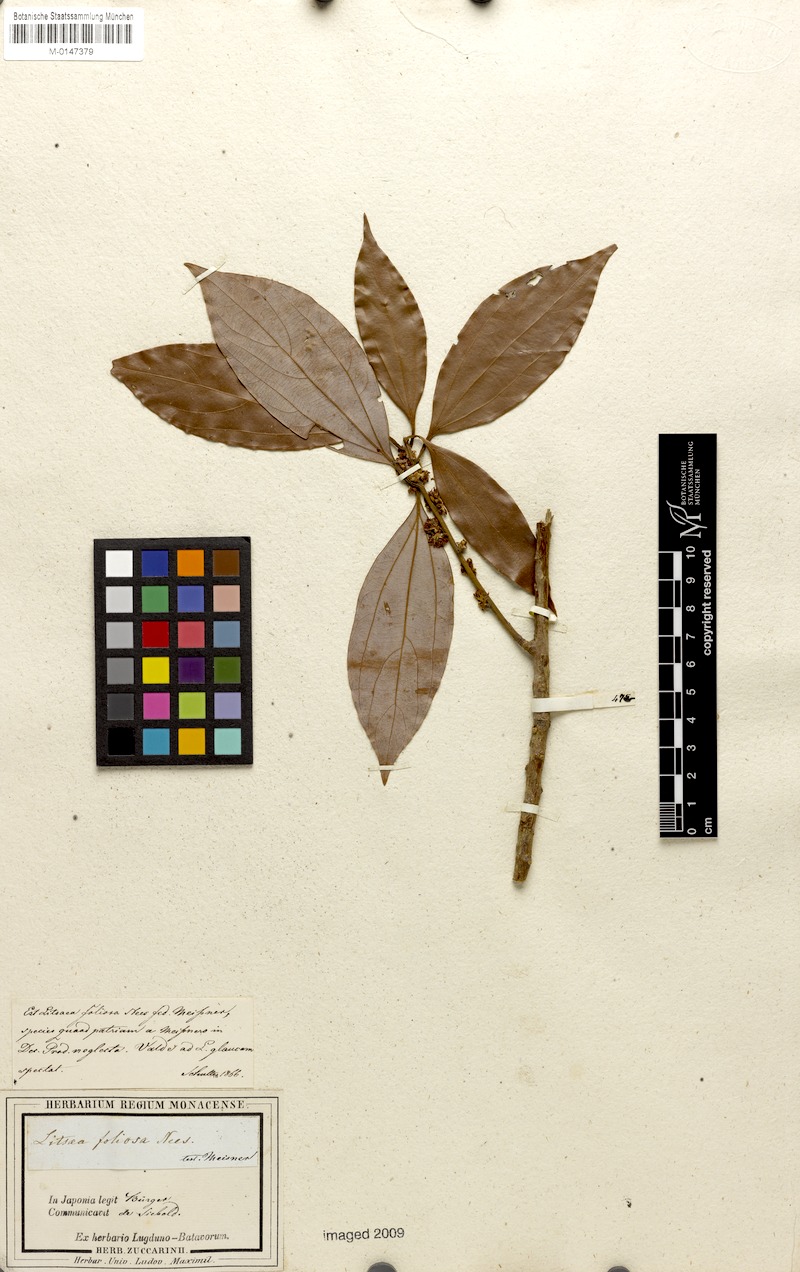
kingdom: Plantae
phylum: Tracheophyta
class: Magnoliopsida
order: Laurales
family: Lauraceae
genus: Neolitsea
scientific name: Neolitsea umbrosa
